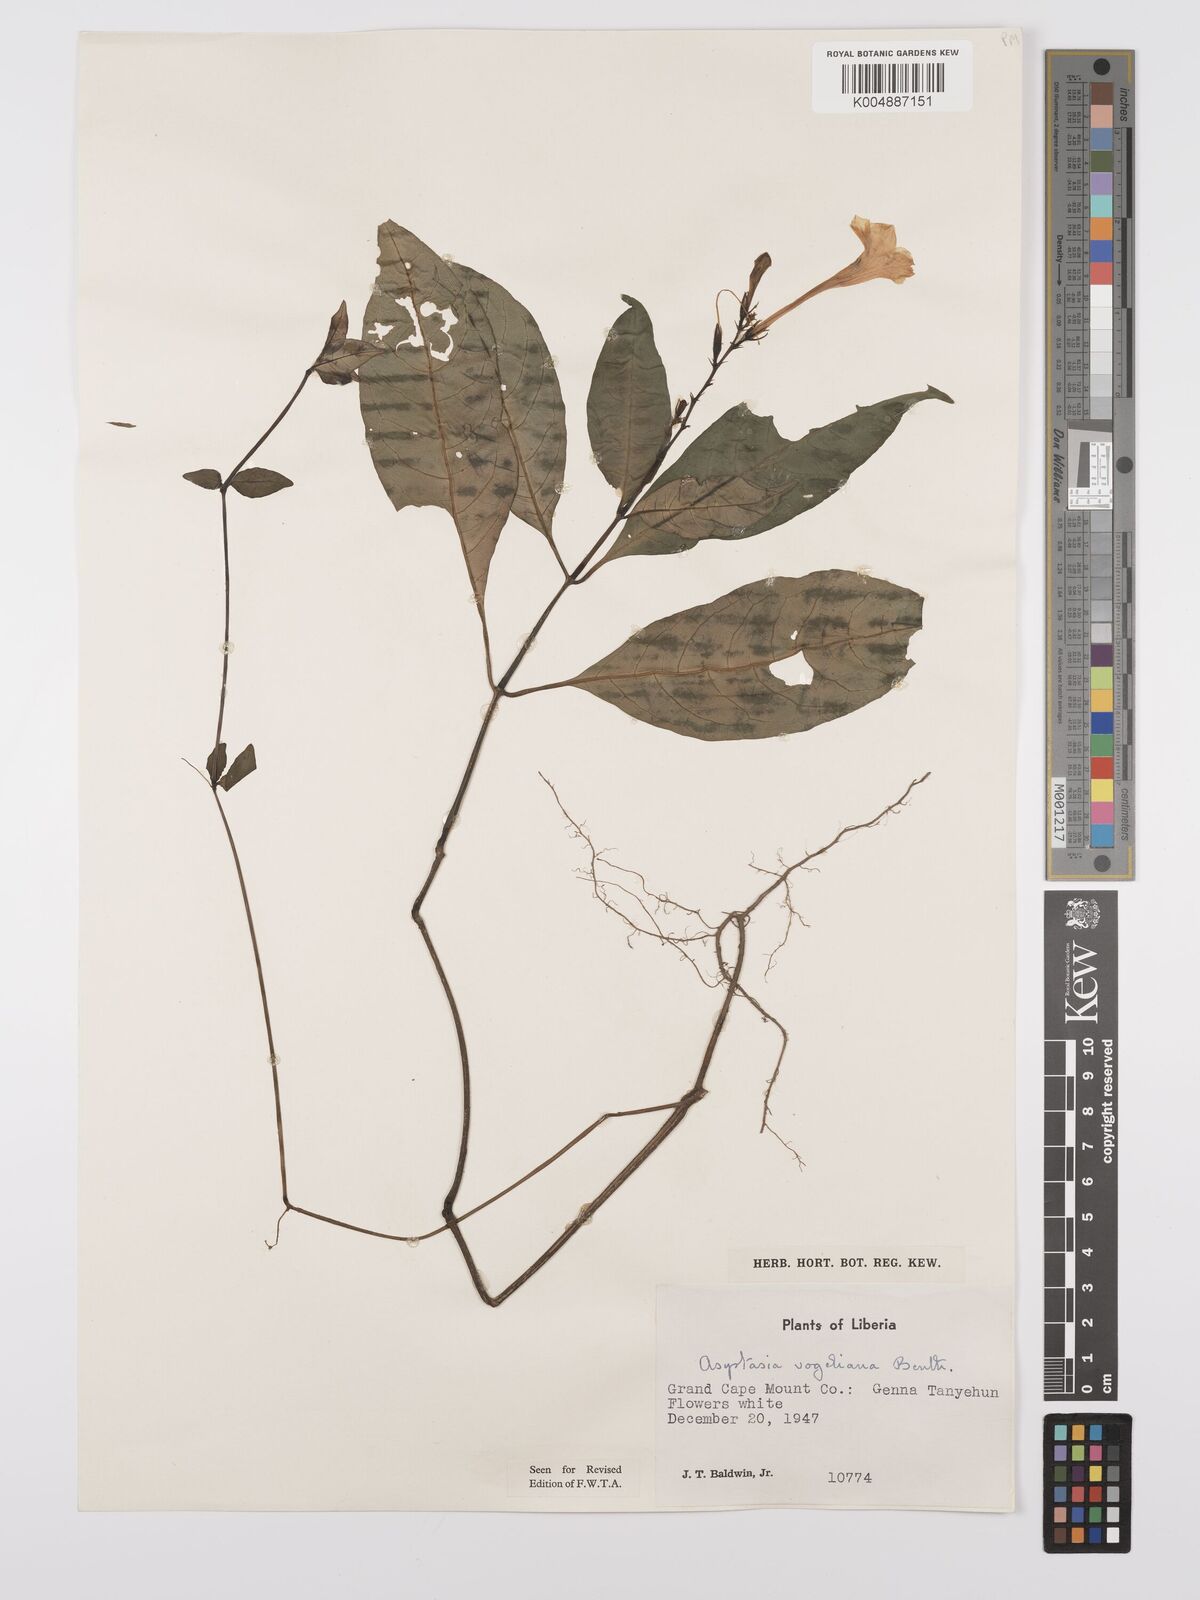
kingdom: Plantae
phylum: Tracheophyta
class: Magnoliopsida
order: Lamiales
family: Acanthaceae
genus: Asystasia
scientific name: Asystasia vogeliana
